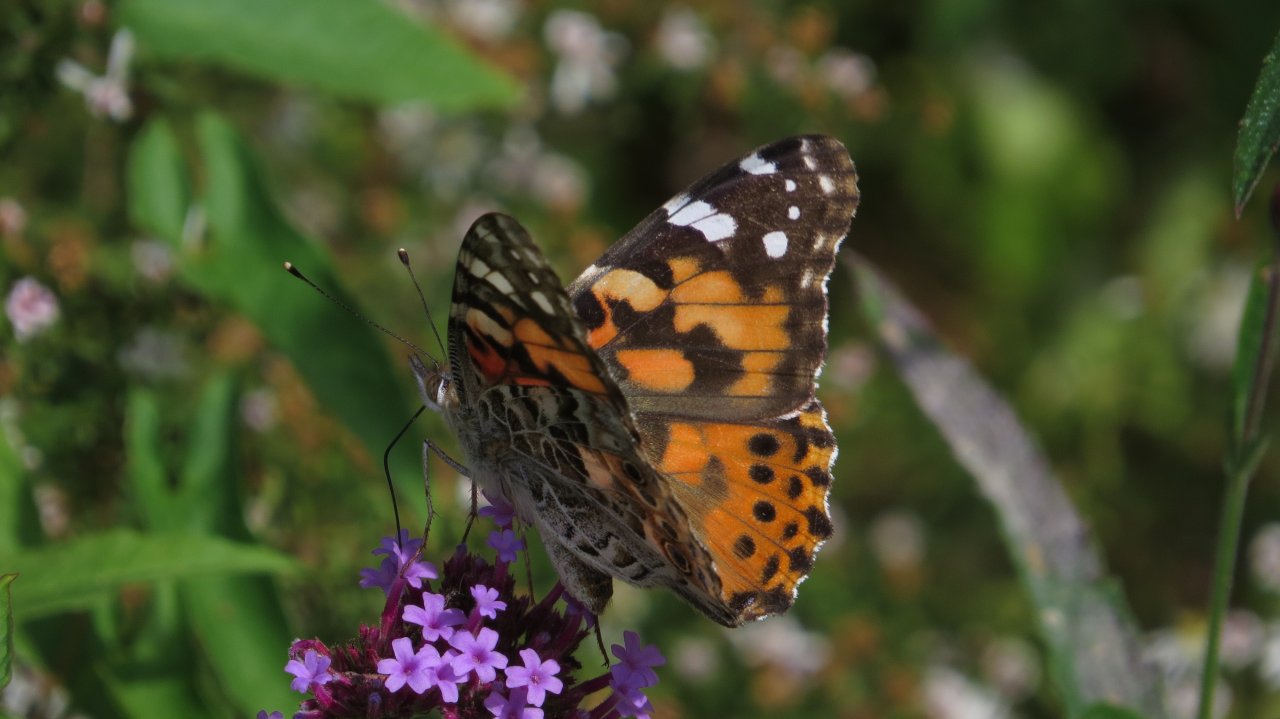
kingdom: Animalia
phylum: Arthropoda
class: Insecta
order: Lepidoptera
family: Nymphalidae
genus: Vanessa
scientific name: Vanessa cardui
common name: Painted Lady
